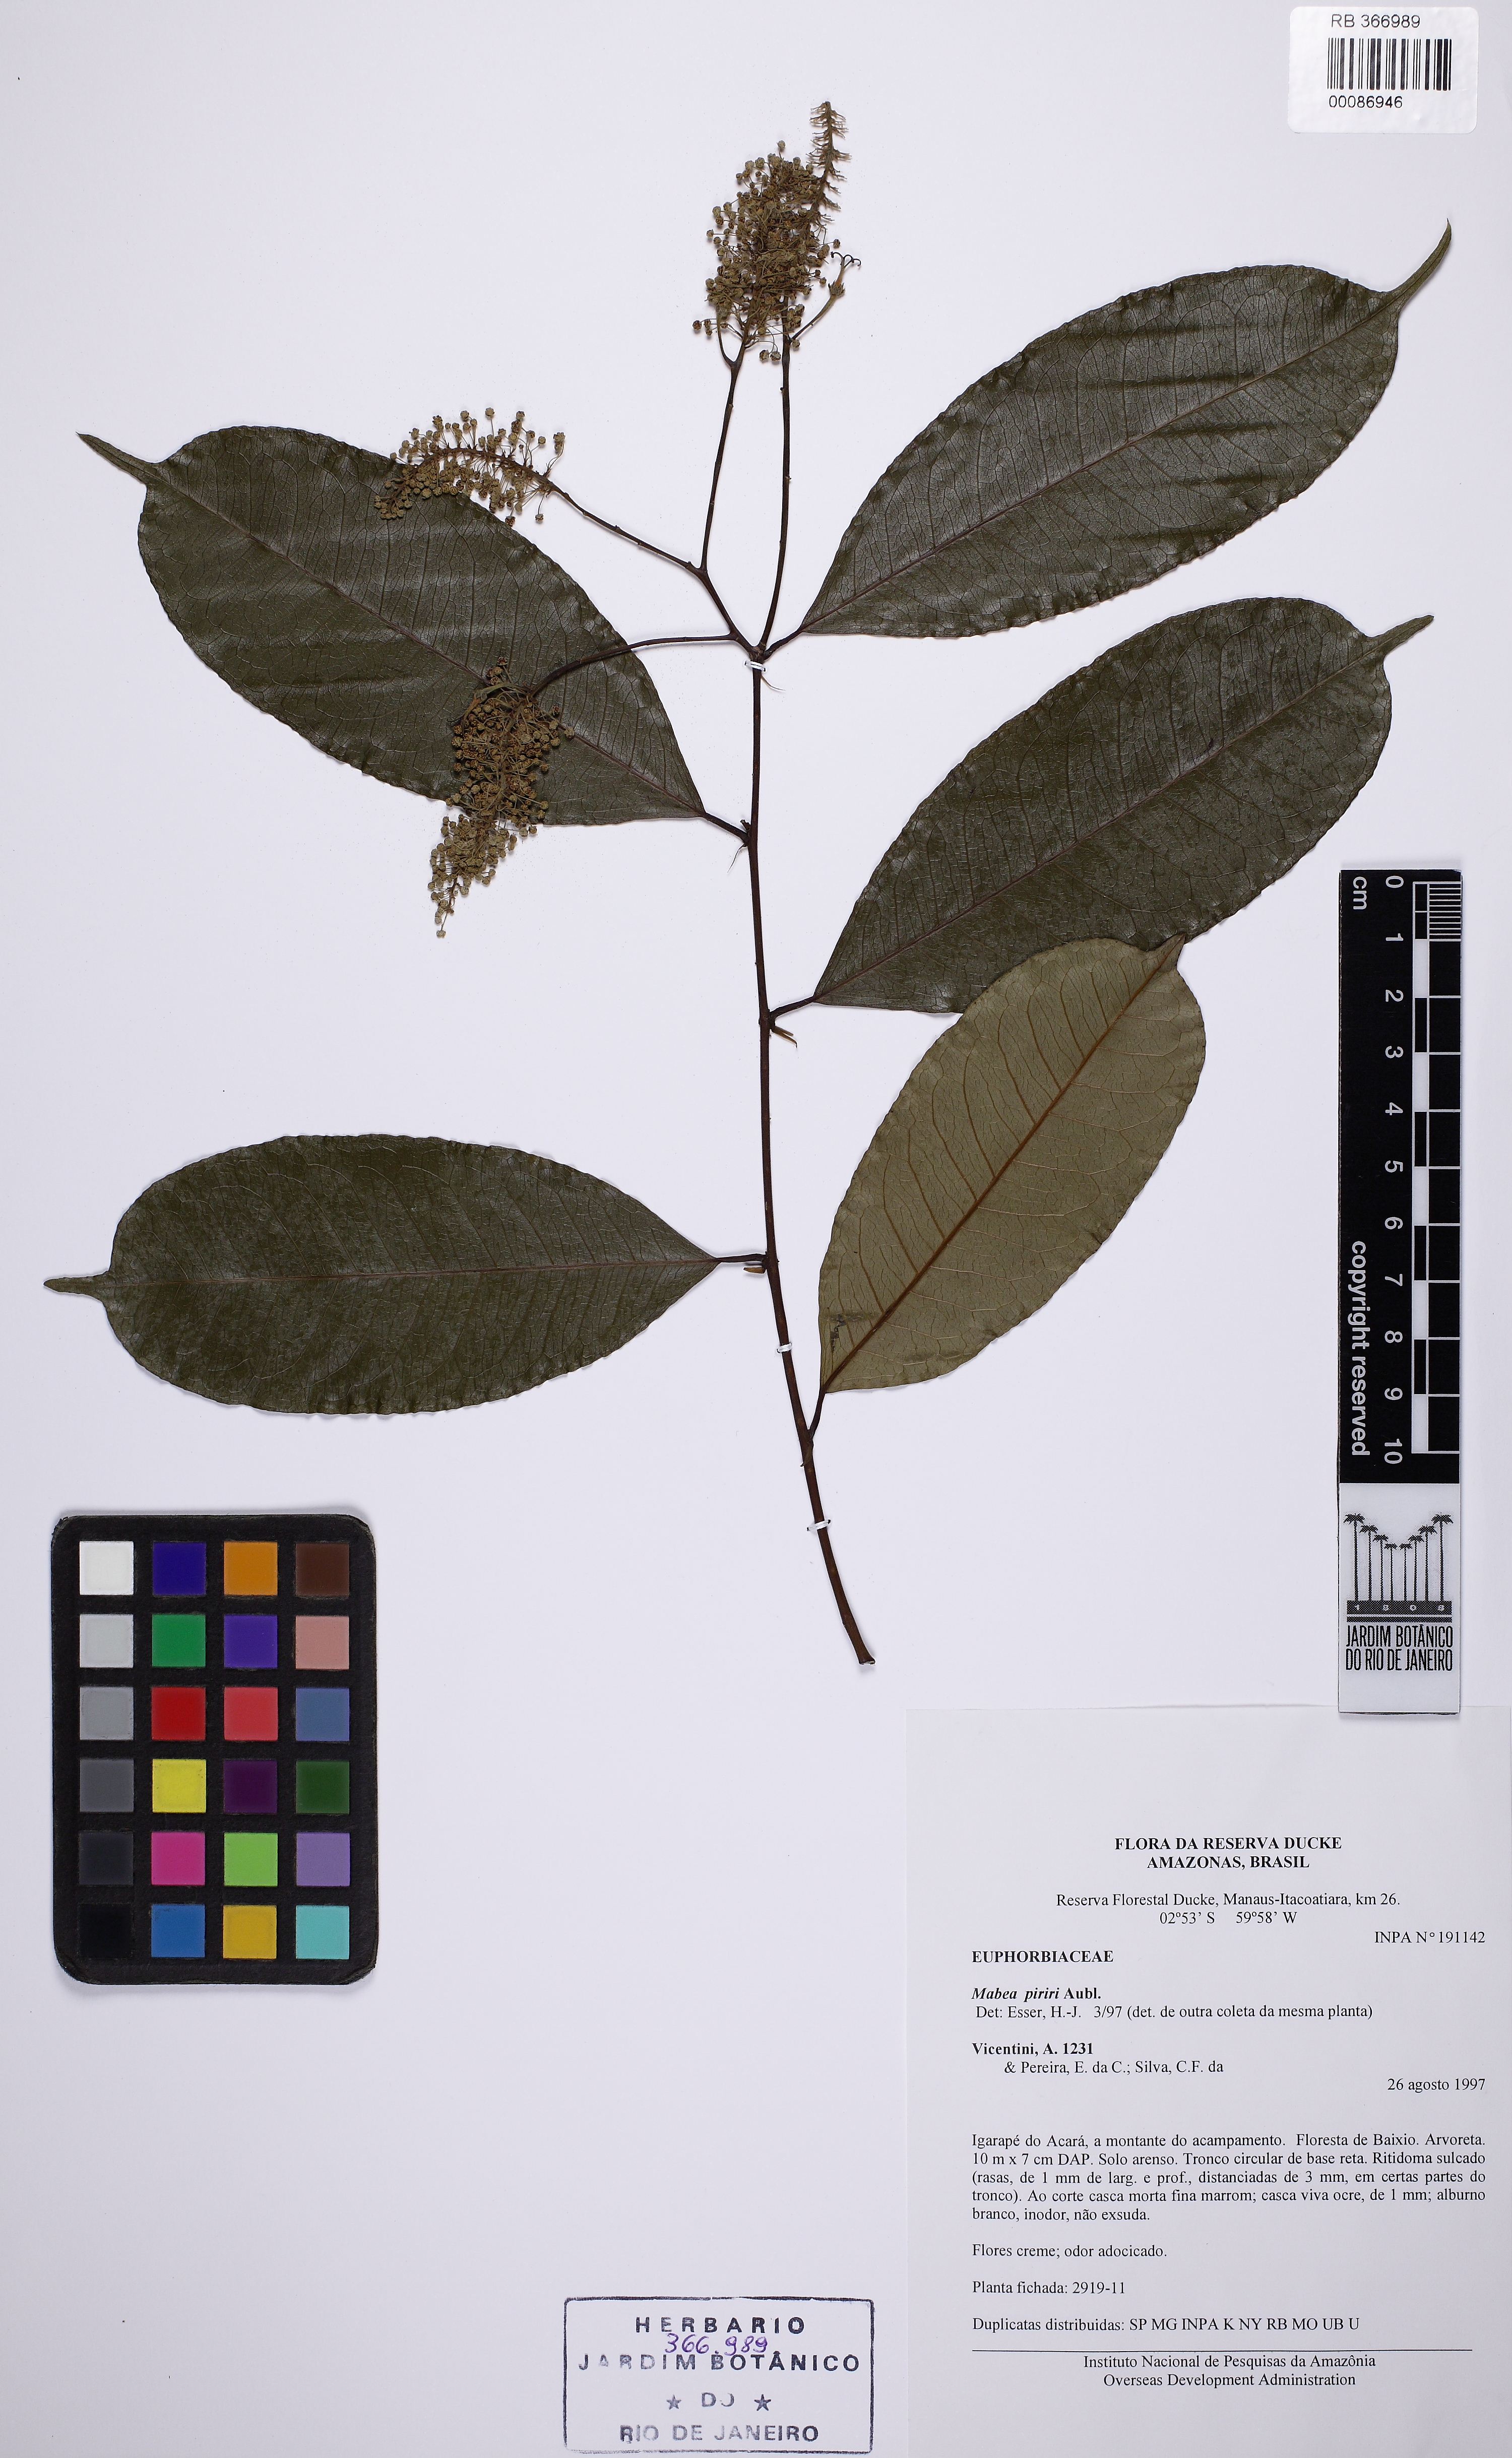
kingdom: Plantae
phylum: Tracheophyta
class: Magnoliopsida
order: Malpighiales
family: Euphorbiaceae
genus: Mabea
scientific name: Mabea piriri
